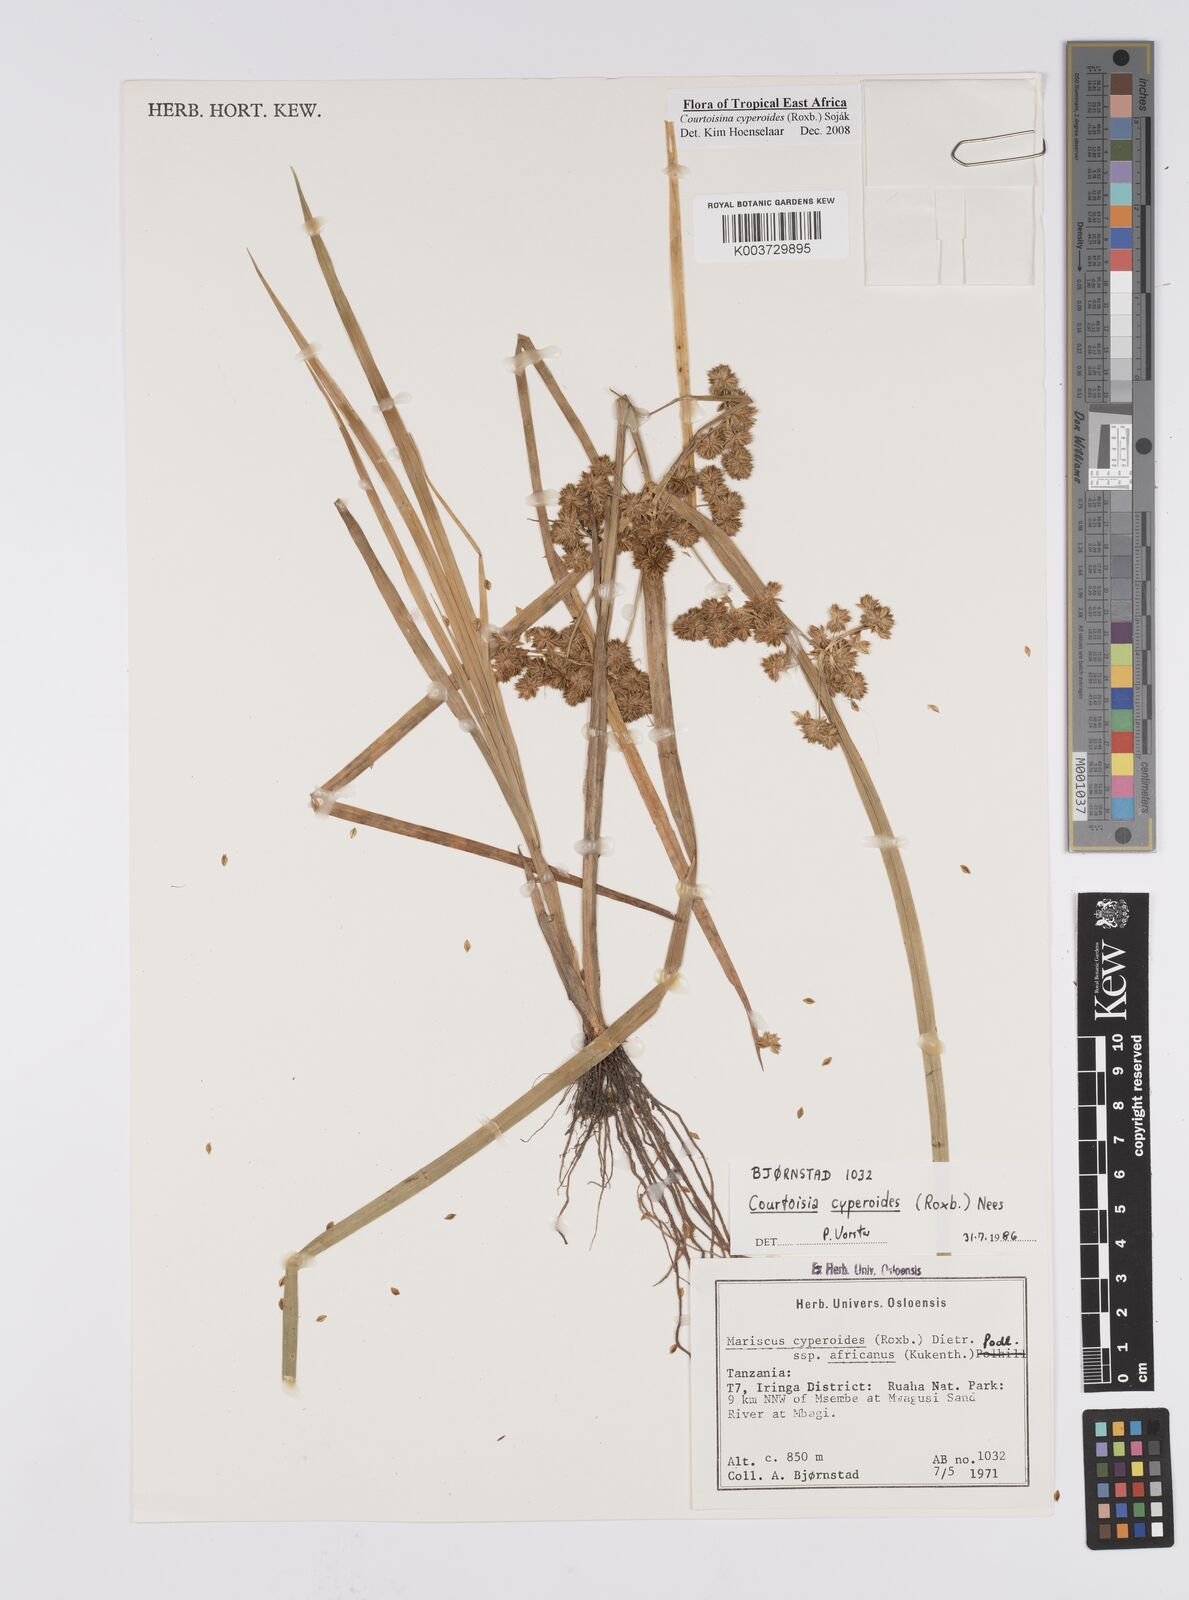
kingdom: Plantae
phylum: Tracheophyta
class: Liliopsida
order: Poales
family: Cyperaceae
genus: Cyperus
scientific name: Cyperus cyperoides
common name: Pacific island flat sedge
